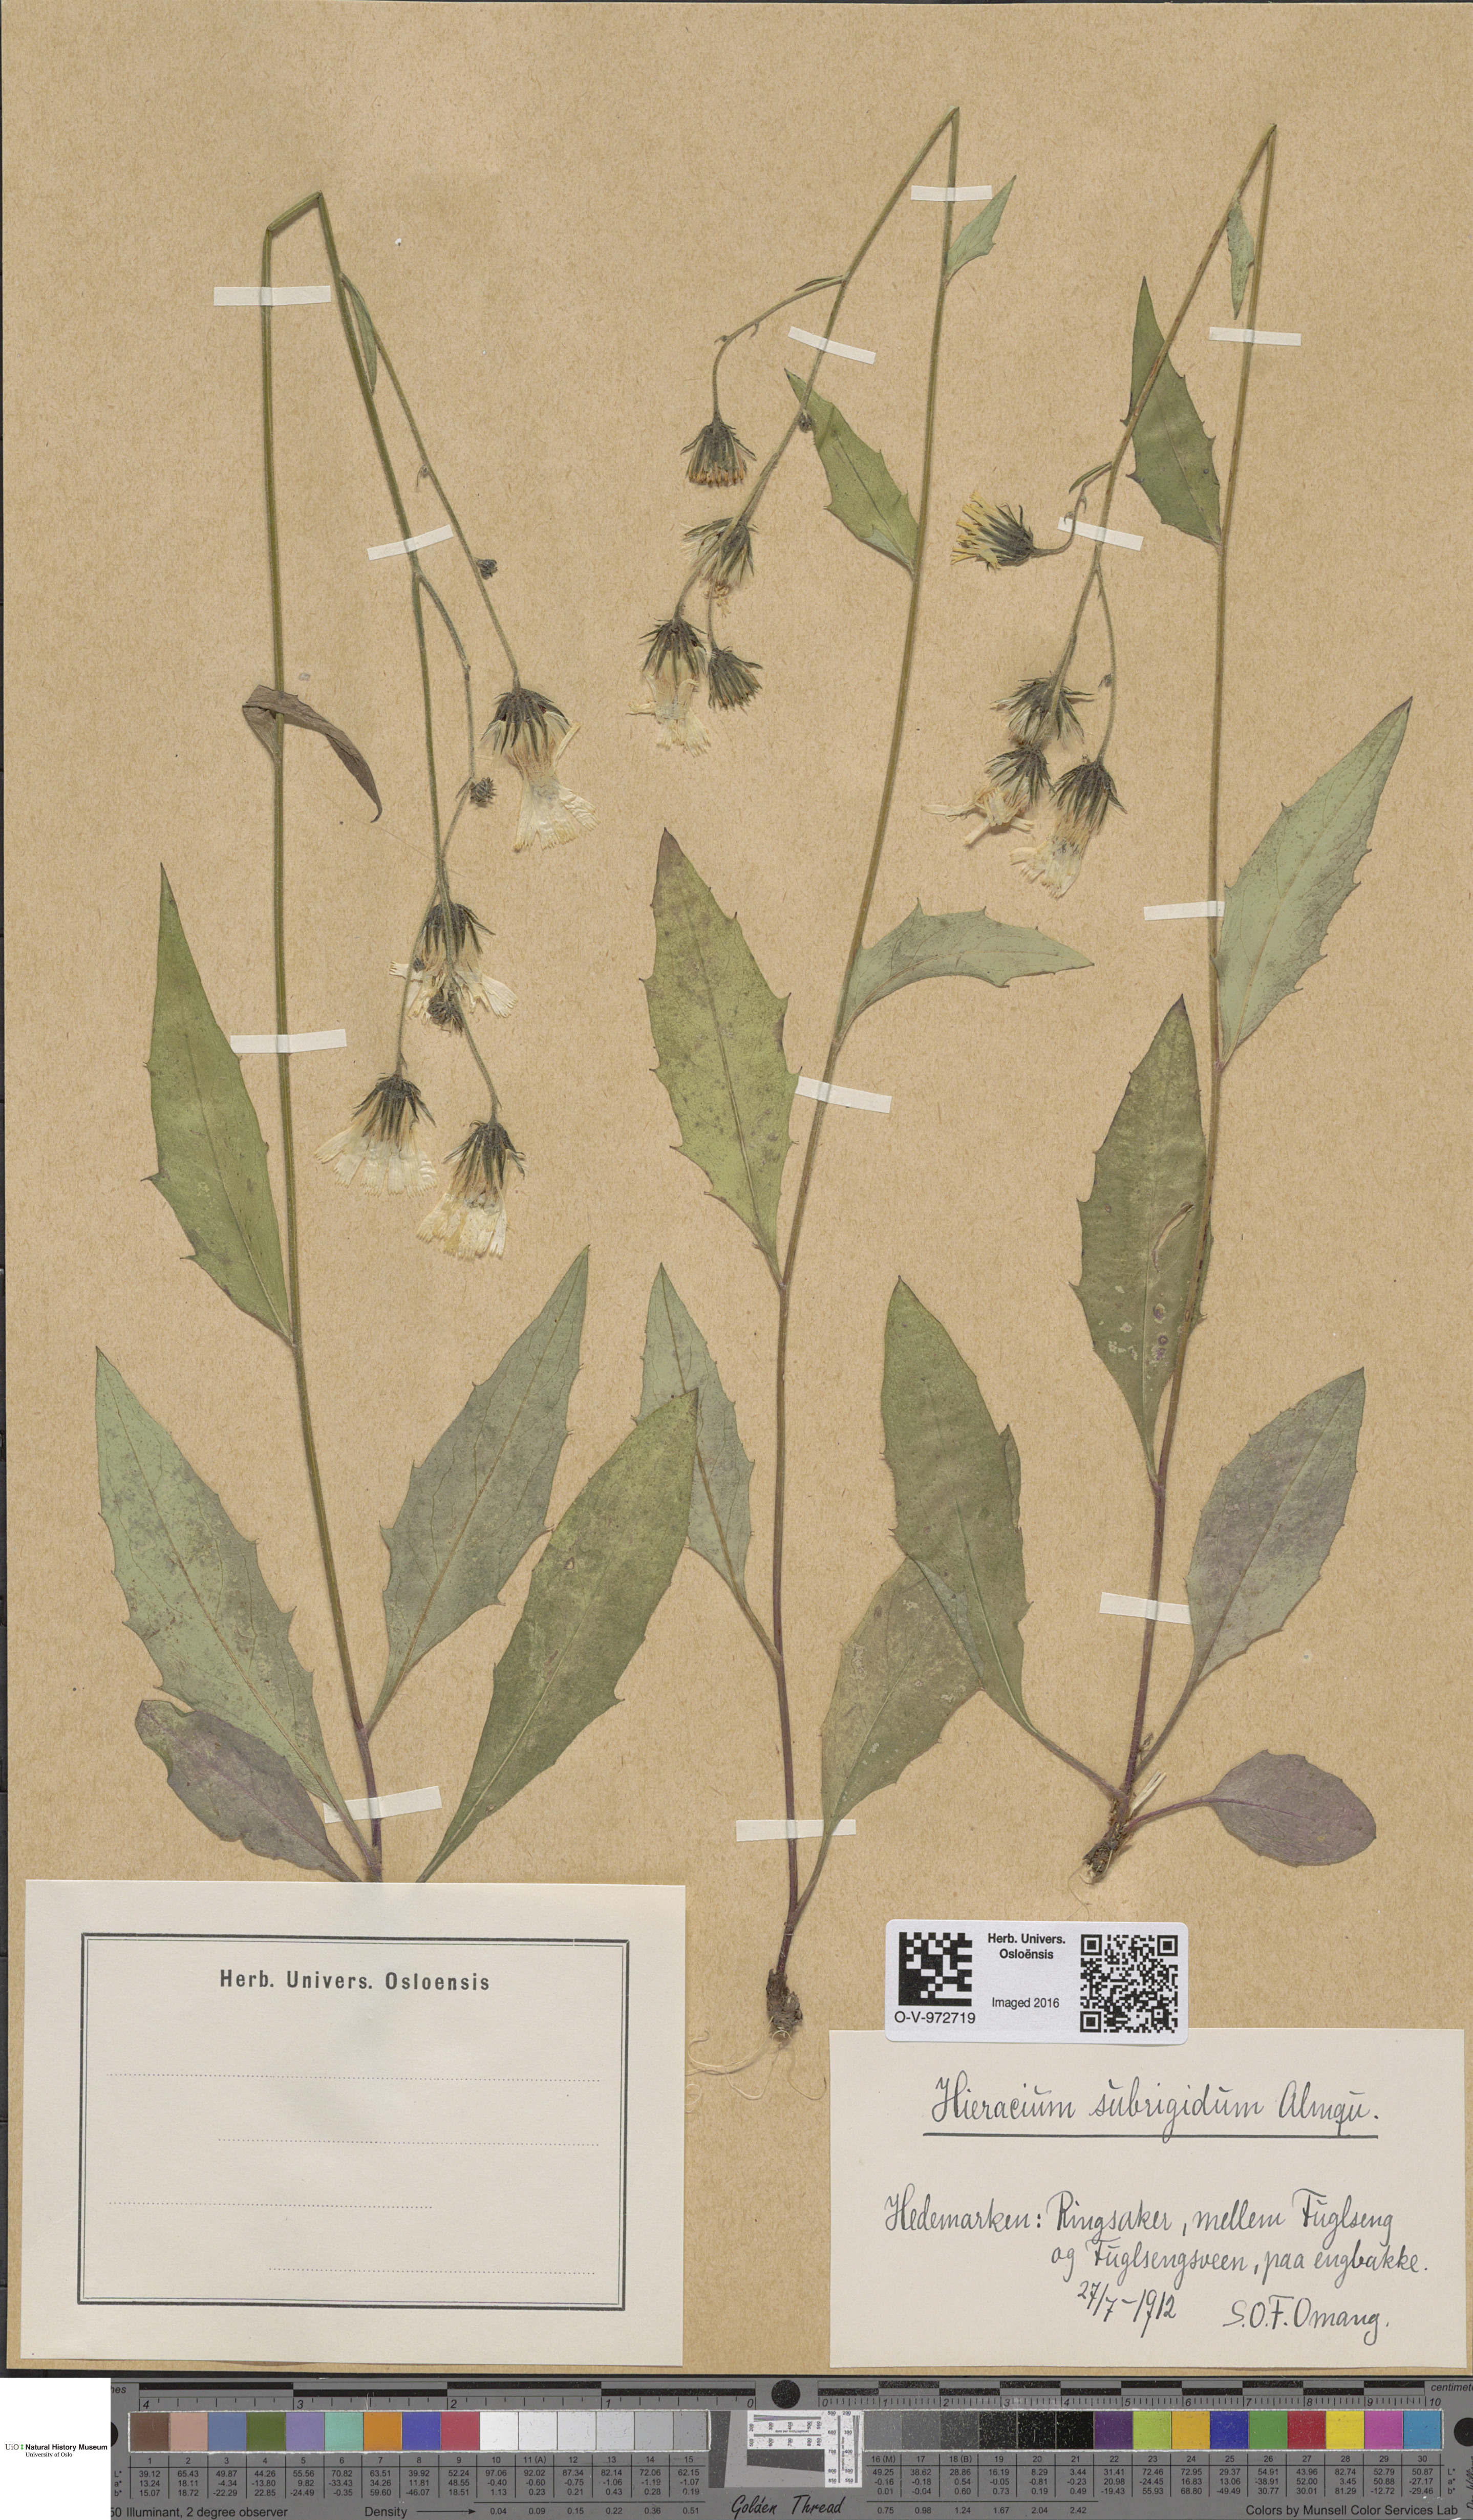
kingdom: Plantae
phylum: Tracheophyta
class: Magnoliopsida
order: Asterales
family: Asteraceae
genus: Hieracium
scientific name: Hieracium subrigidum
